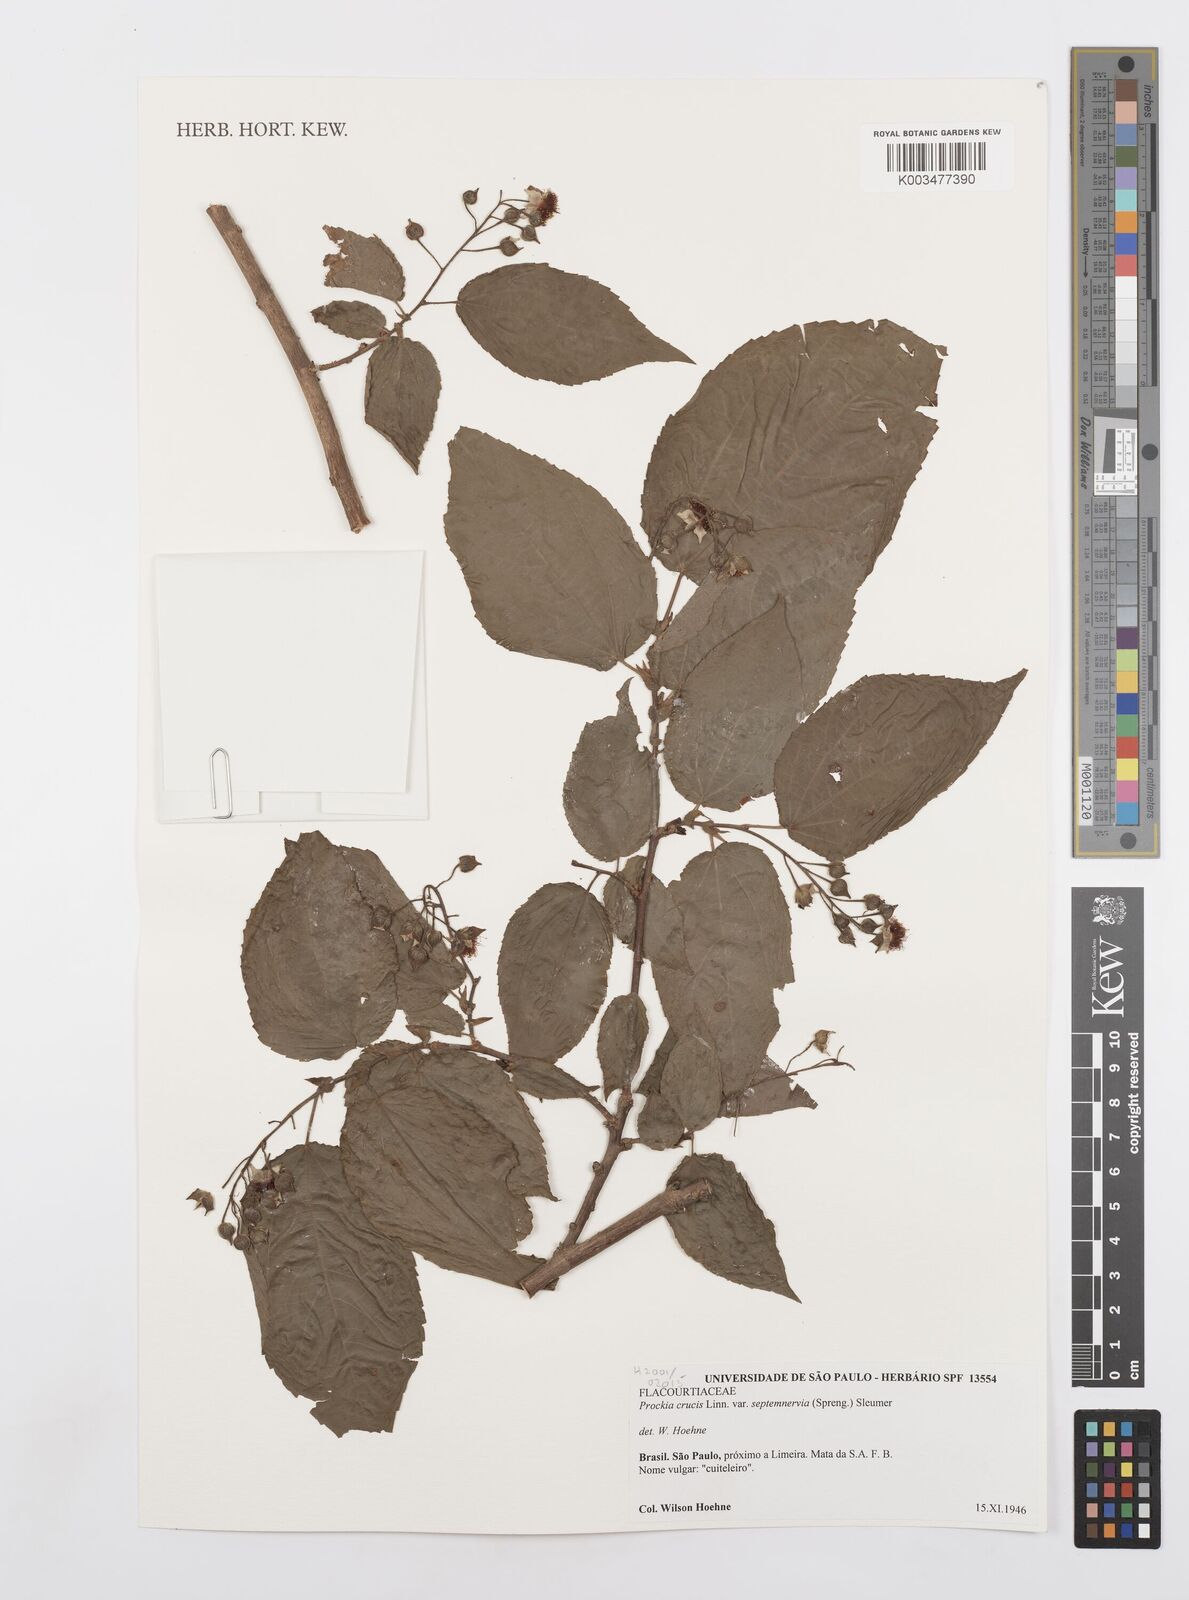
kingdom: Plantae
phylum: Tracheophyta
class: Magnoliopsida
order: Malpighiales
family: Salicaceae
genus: Prockia
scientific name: Prockia crucis
